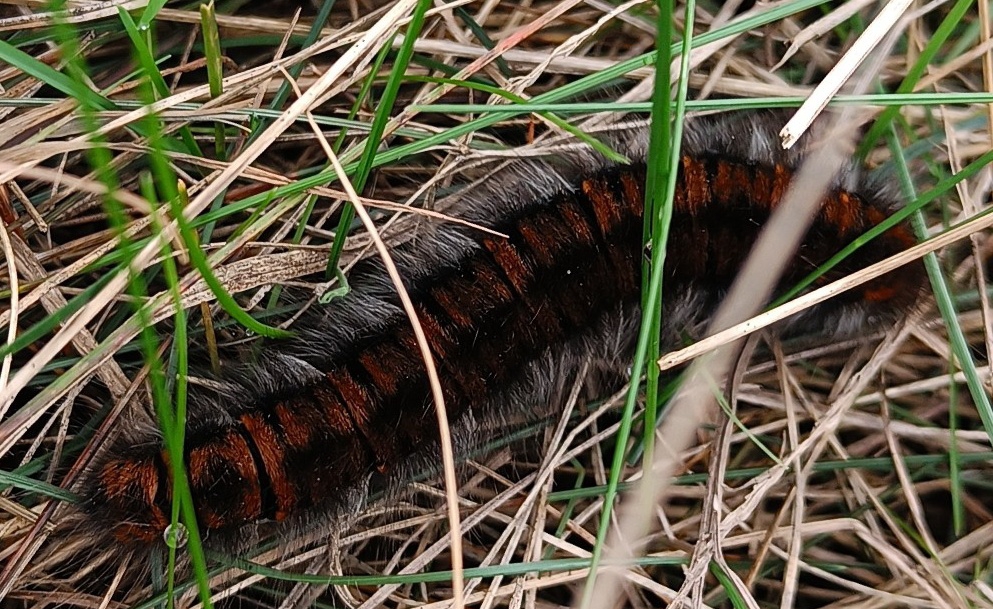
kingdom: Animalia
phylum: Arthropoda
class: Insecta
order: Lepidoptera
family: Lasiocampidae
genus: Macrothylacia
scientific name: Macrothylacia rubi
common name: Brombærspinder
